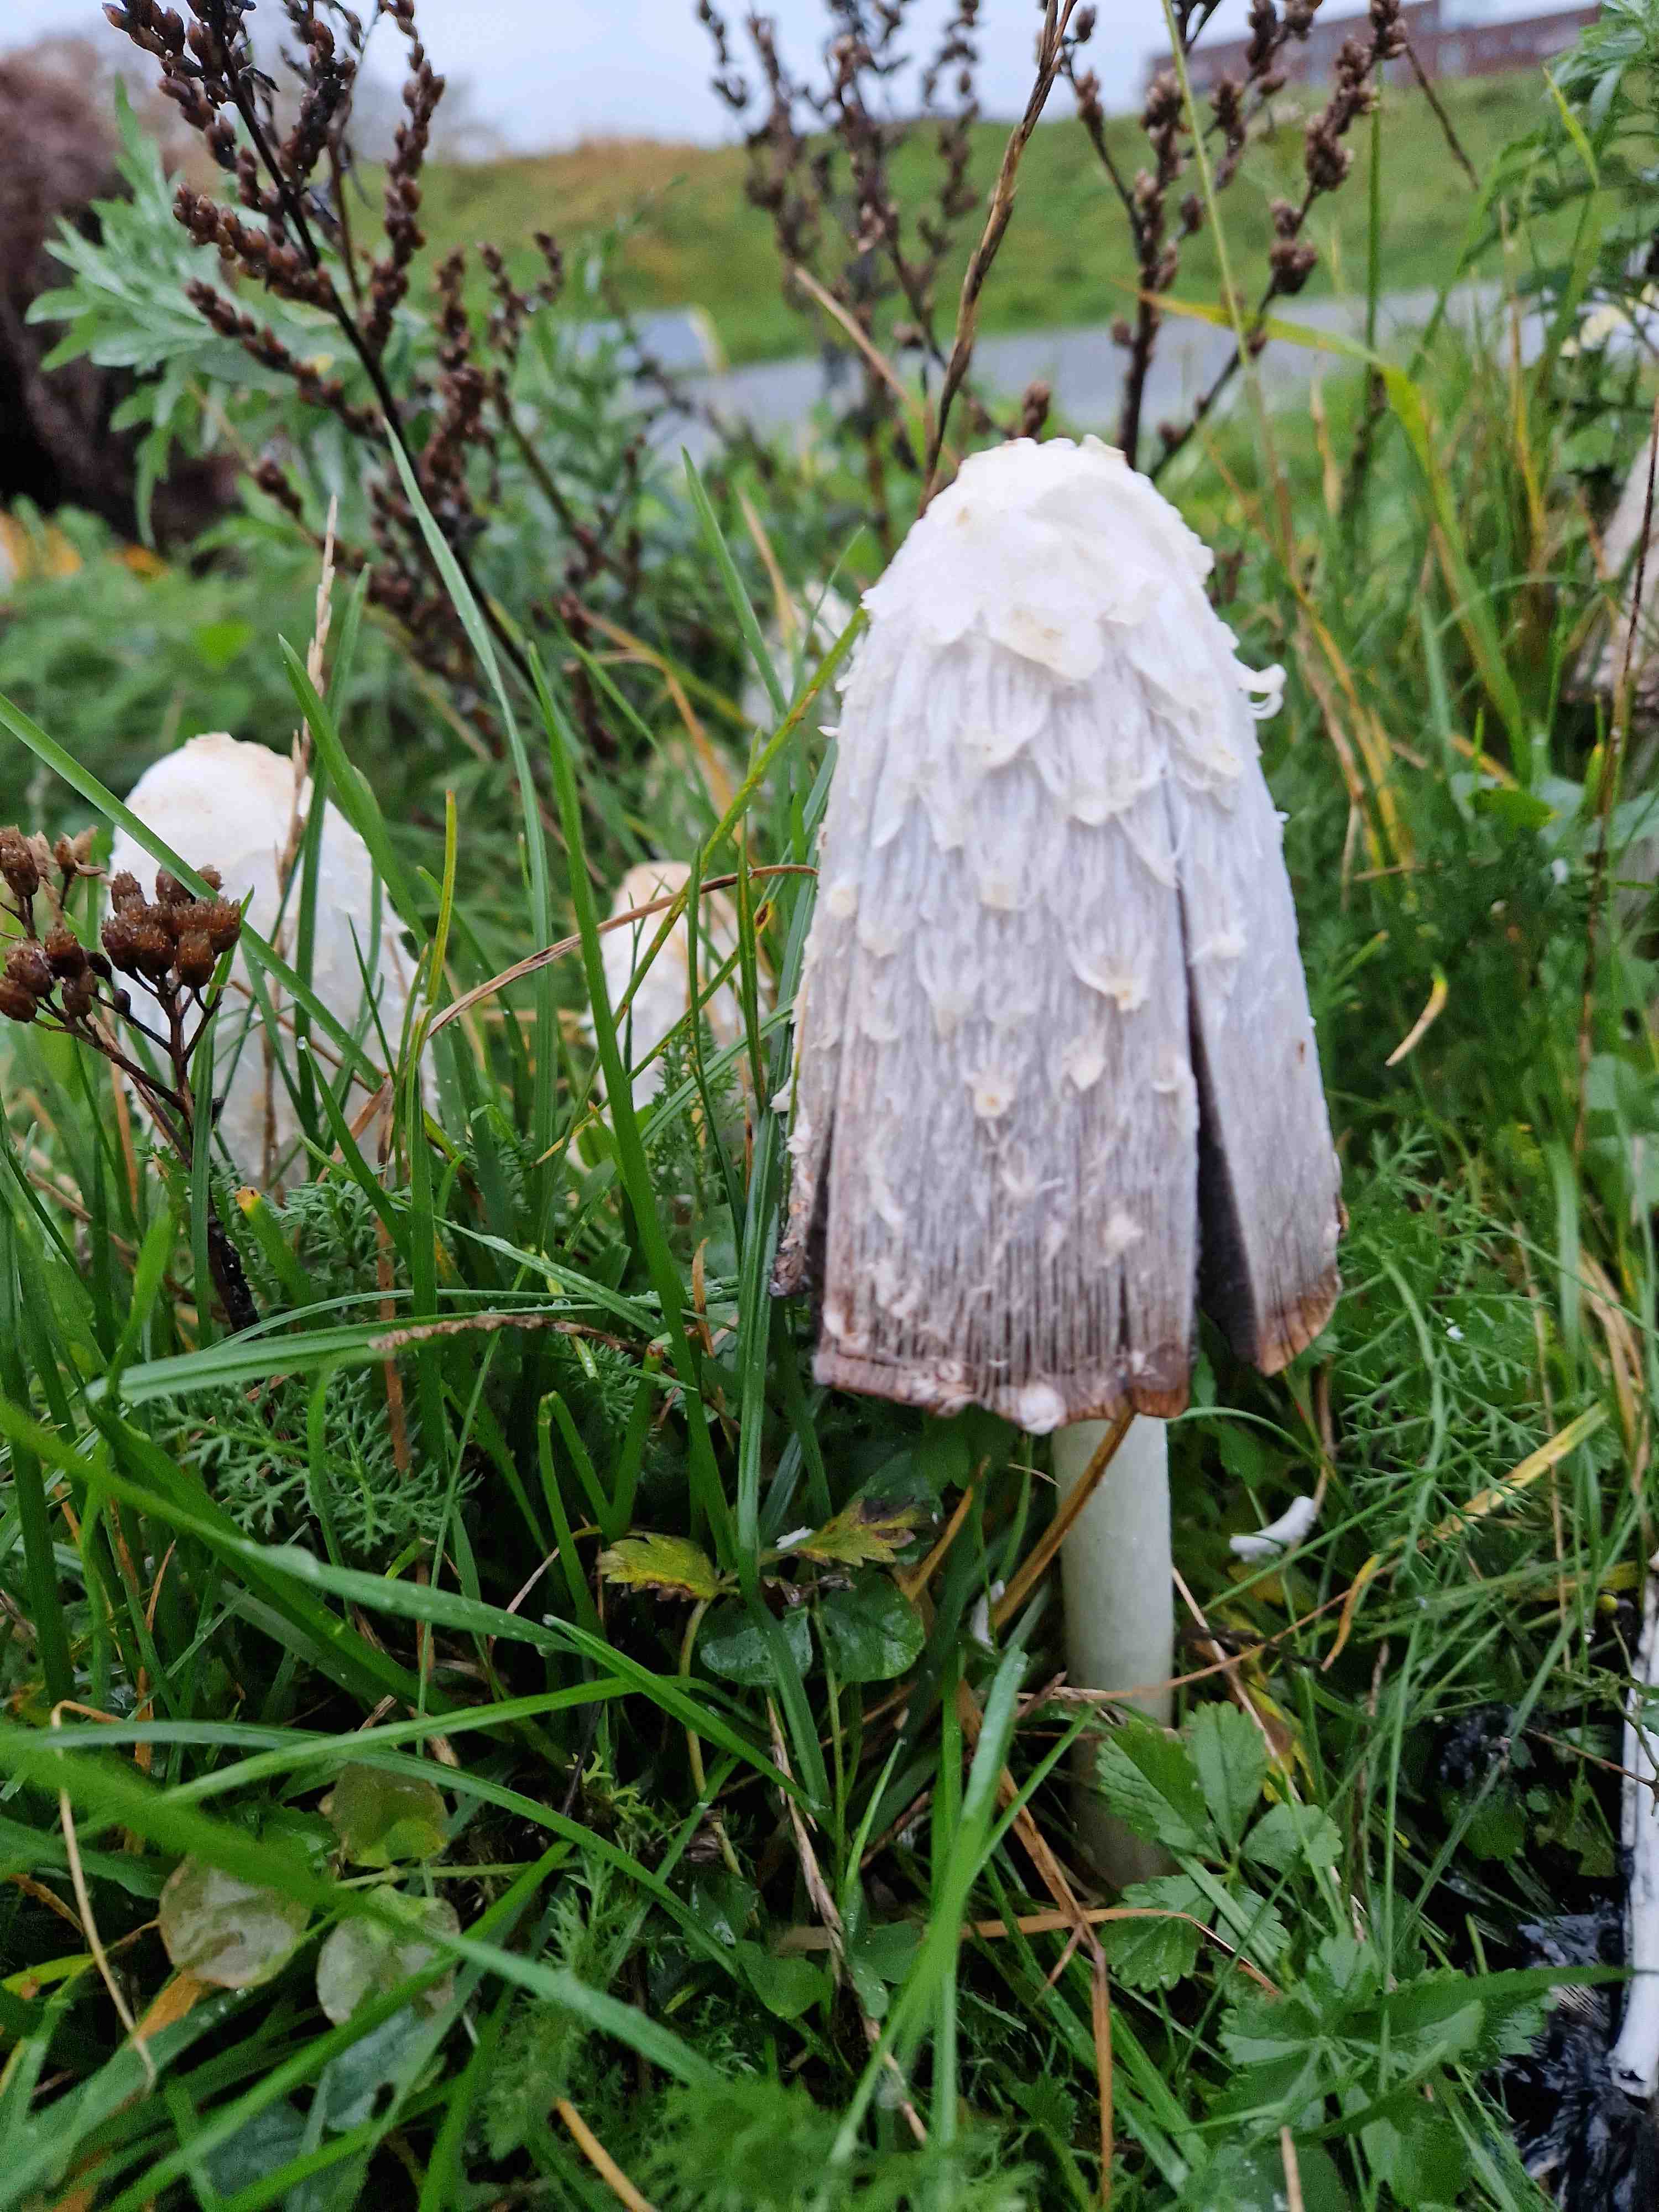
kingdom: Fungi
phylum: Basidiomycota
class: Agaricomycetes
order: Agaricales
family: Agaricaceae
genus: Coprinus
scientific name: Coprinus comatus
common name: stor parykhat
